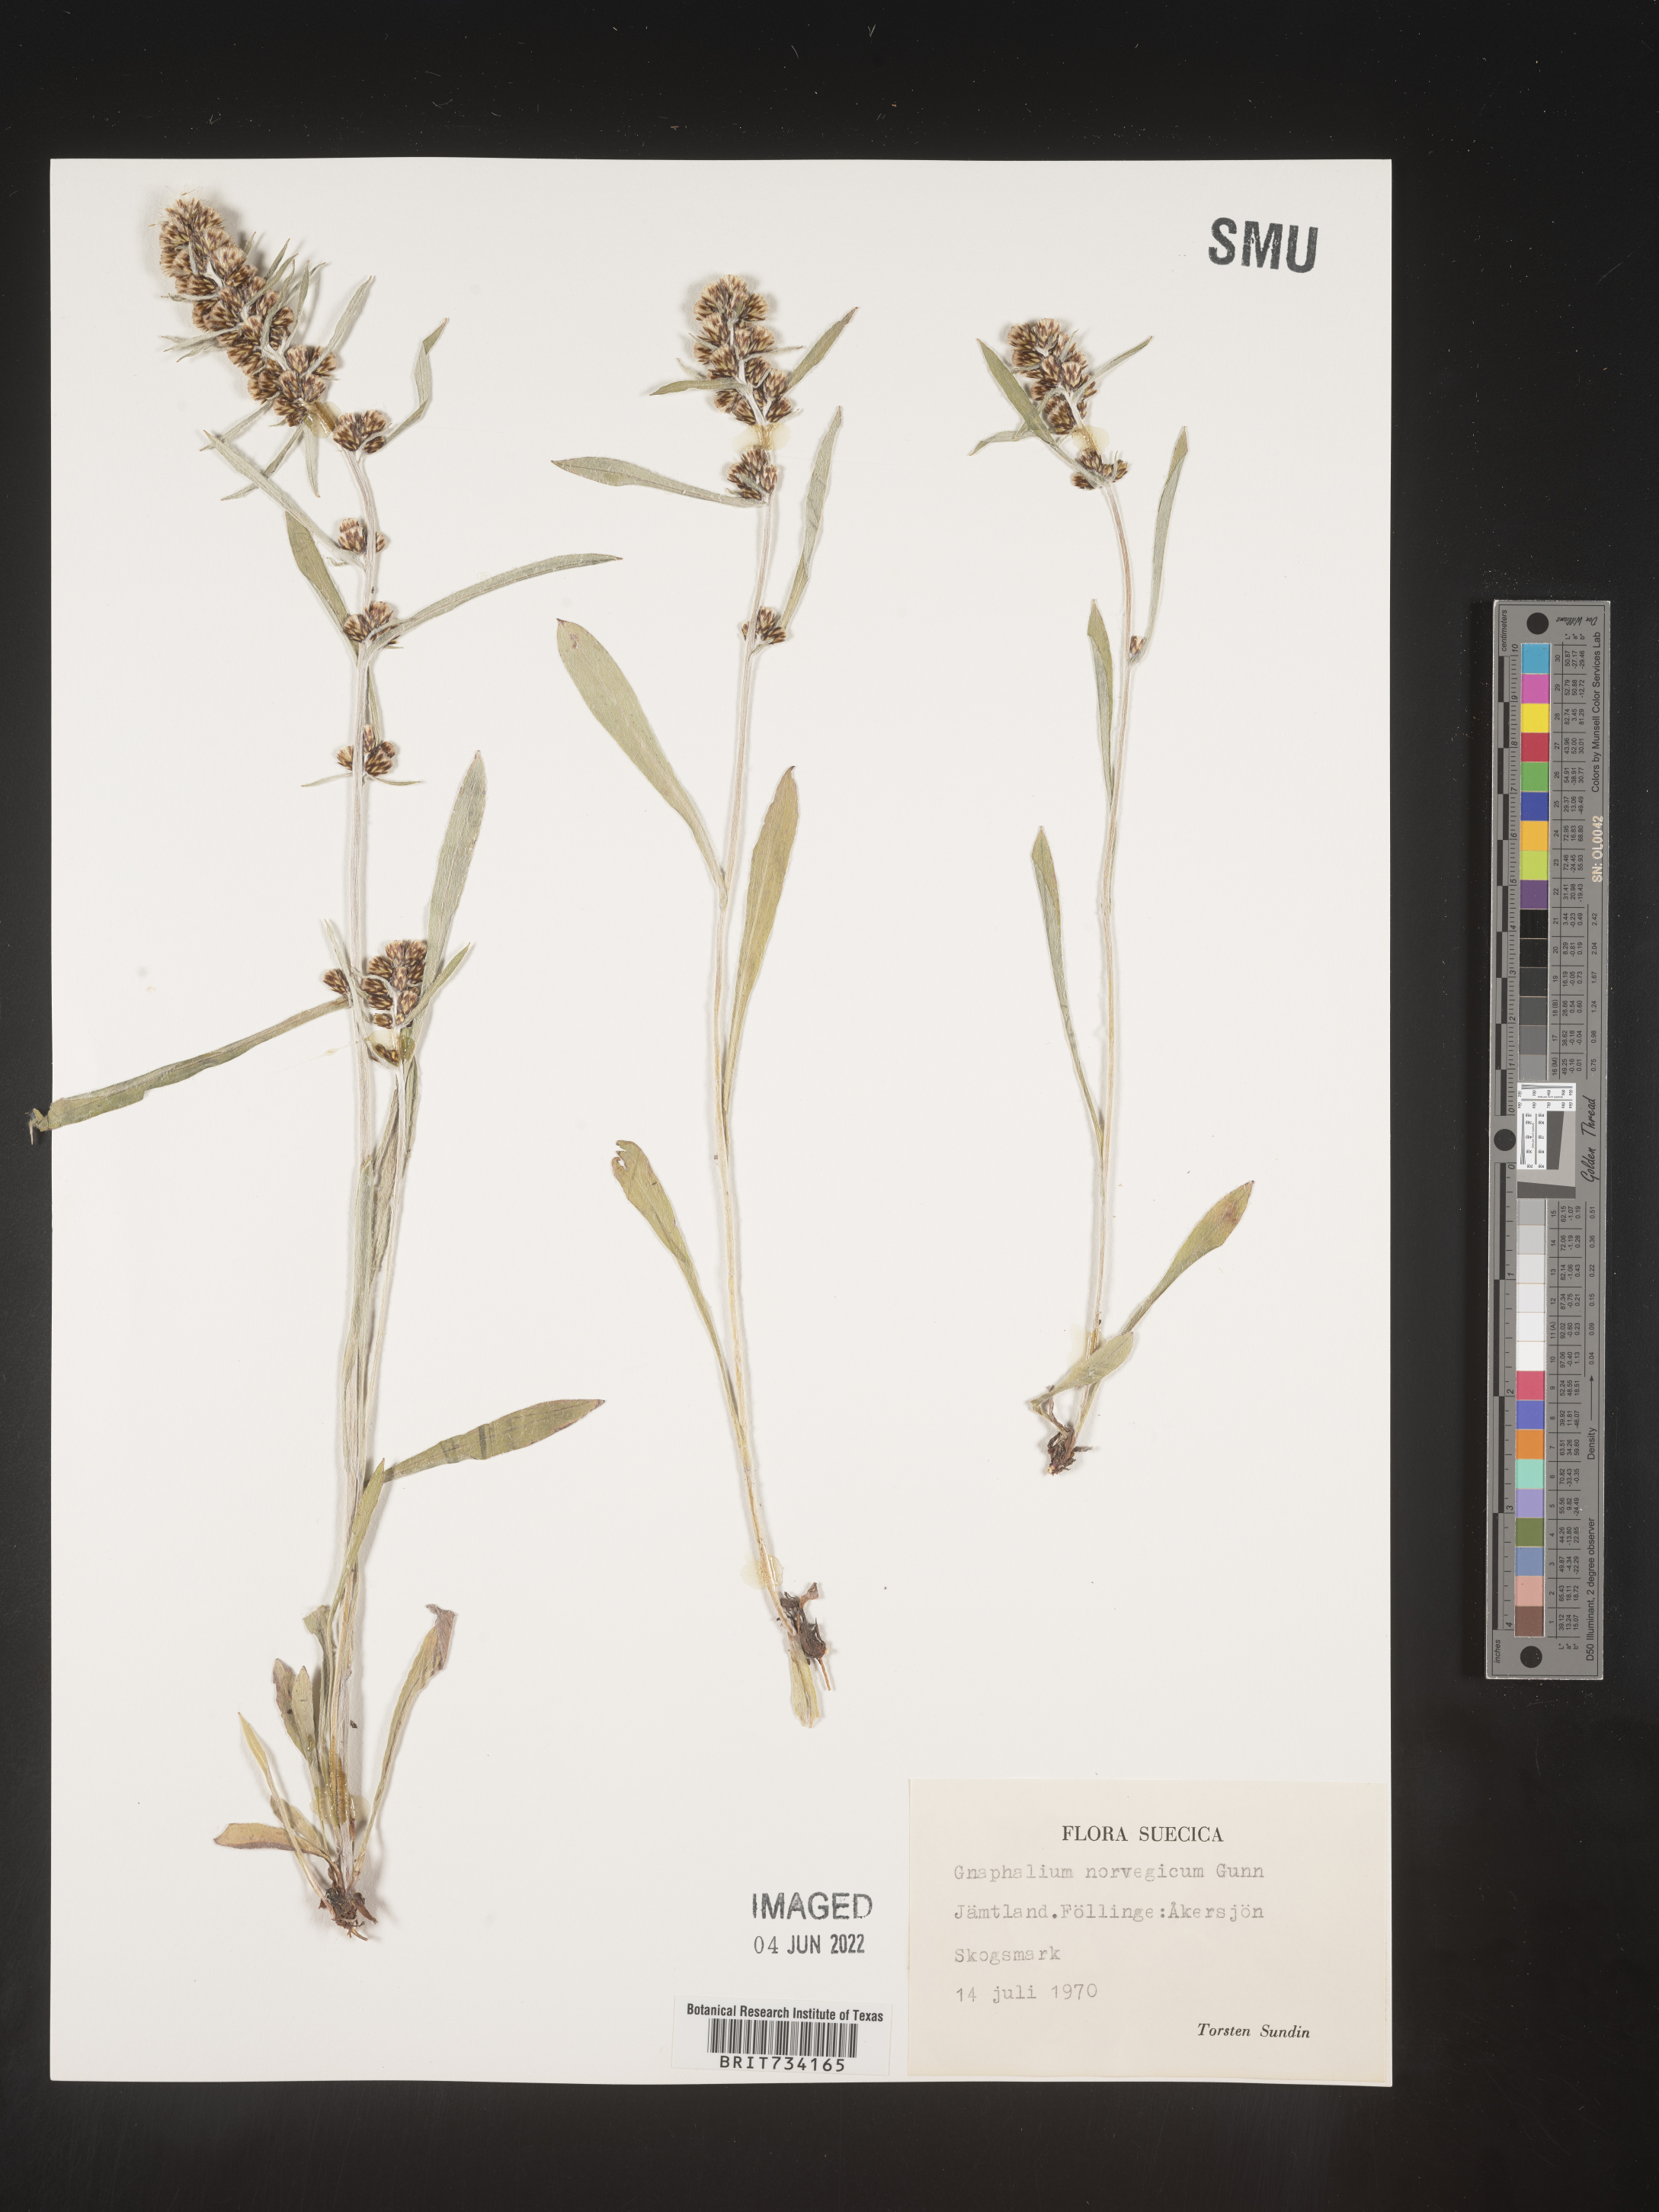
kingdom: Plantae
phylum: Tracheophyta
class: Magnoliopsida
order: Asterales
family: Asteraceae
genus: Omalotheca
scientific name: Omalotheca norvegica
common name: Norwegian arctic-cudweed
